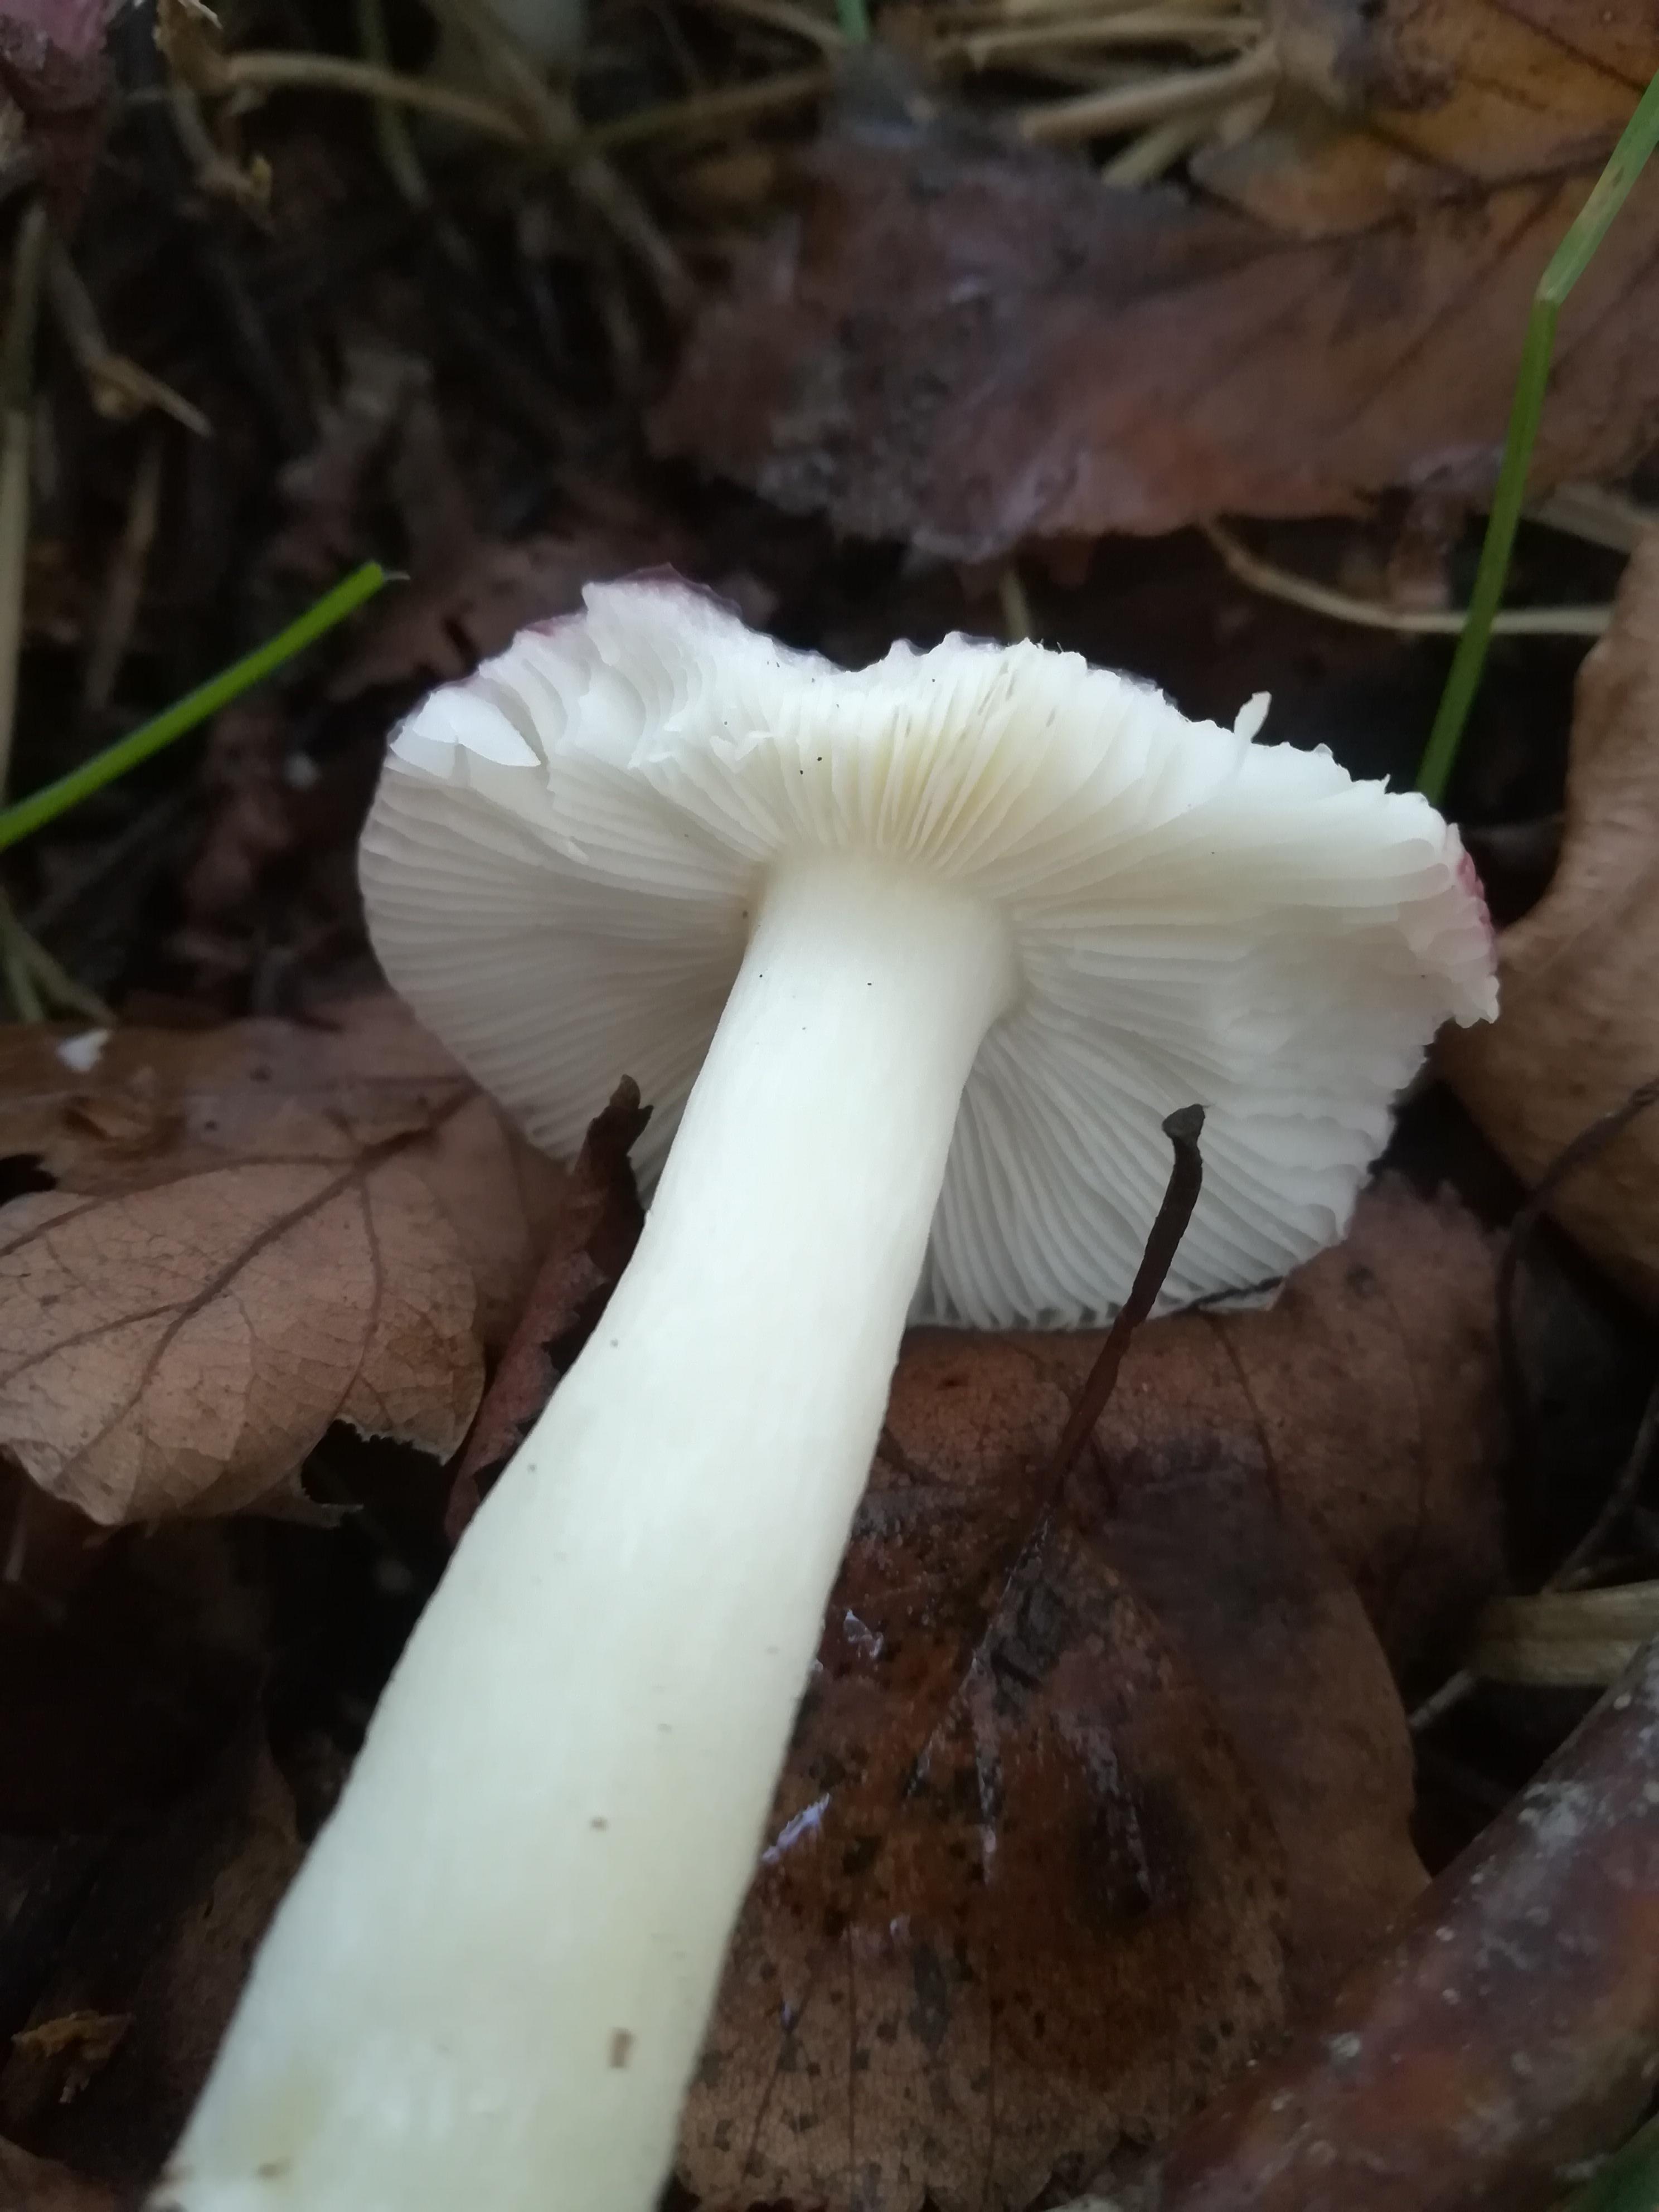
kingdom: Fungi
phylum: Basidiomycota
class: Agaricomycetes
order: Russulales
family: Russulaceae
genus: Russula
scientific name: Russula fragilis
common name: Fragile brittlegill
